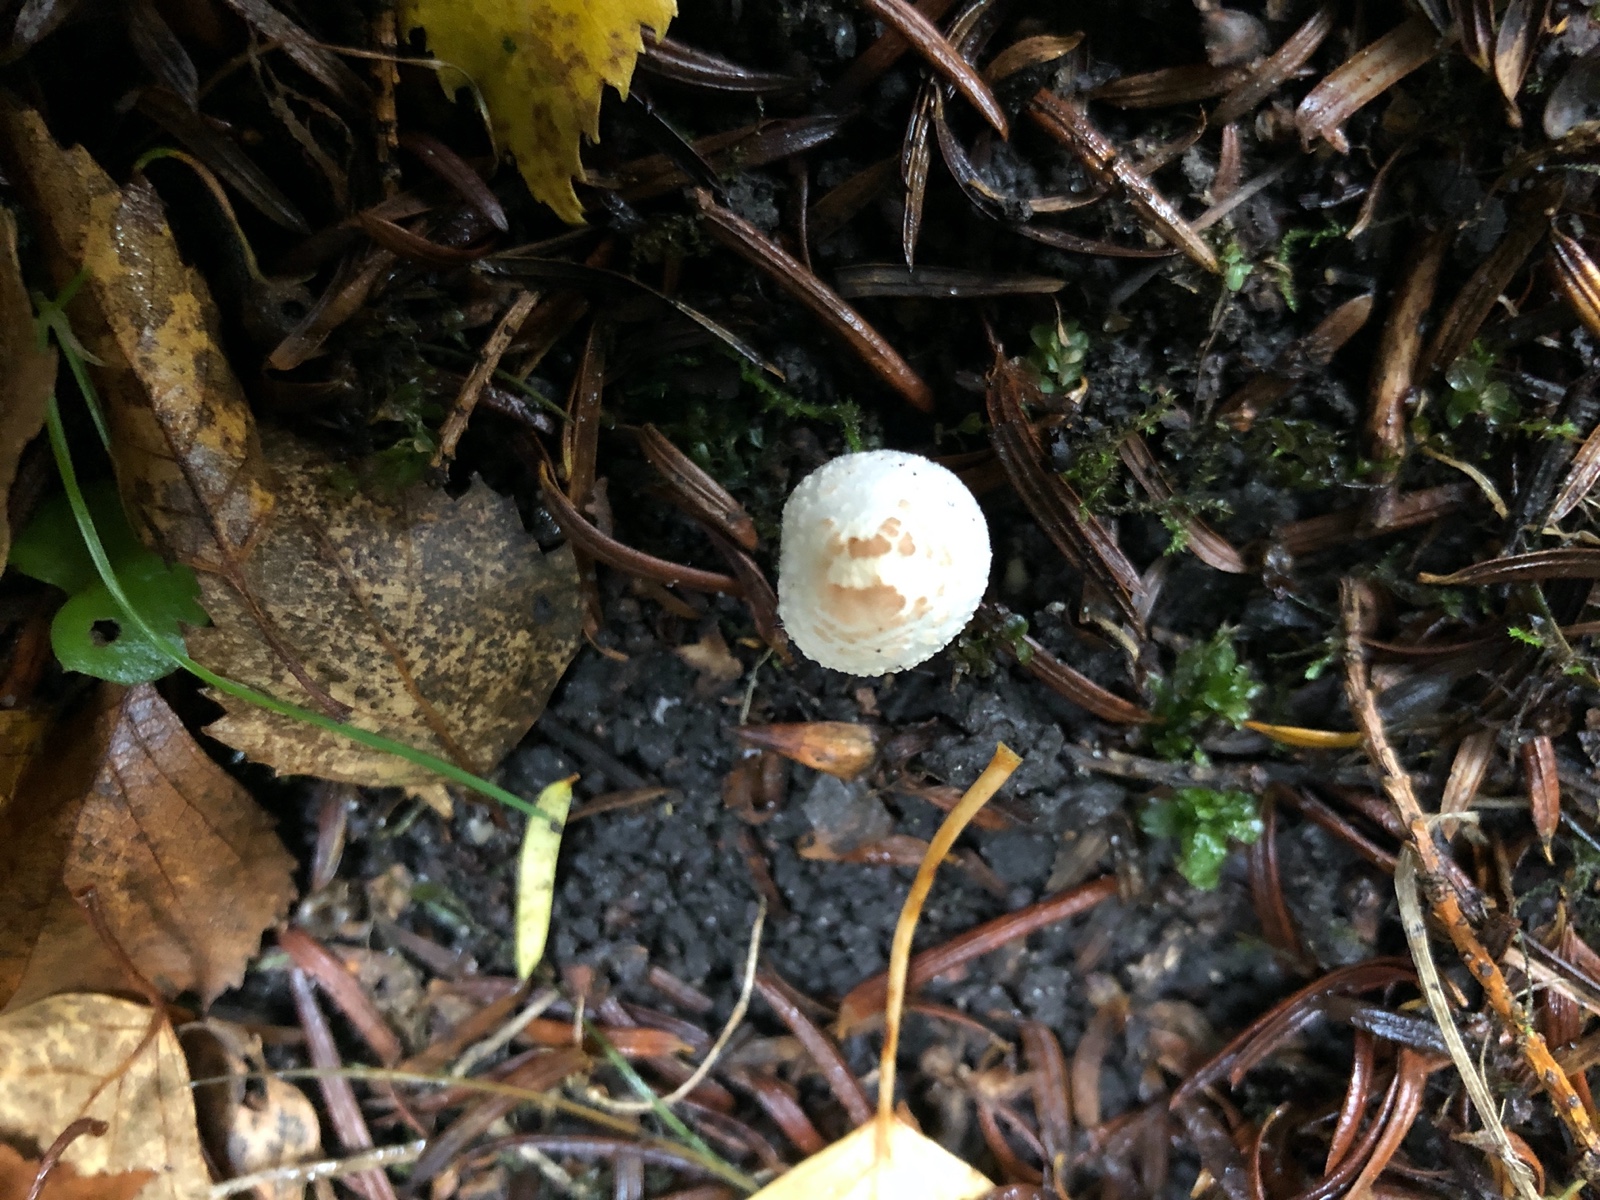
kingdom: Fungi
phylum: Basidiomycota
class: Agaricomycetes
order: Agaricales
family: Agaricaceae
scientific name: Agaricaceae
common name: champignonfamilien
